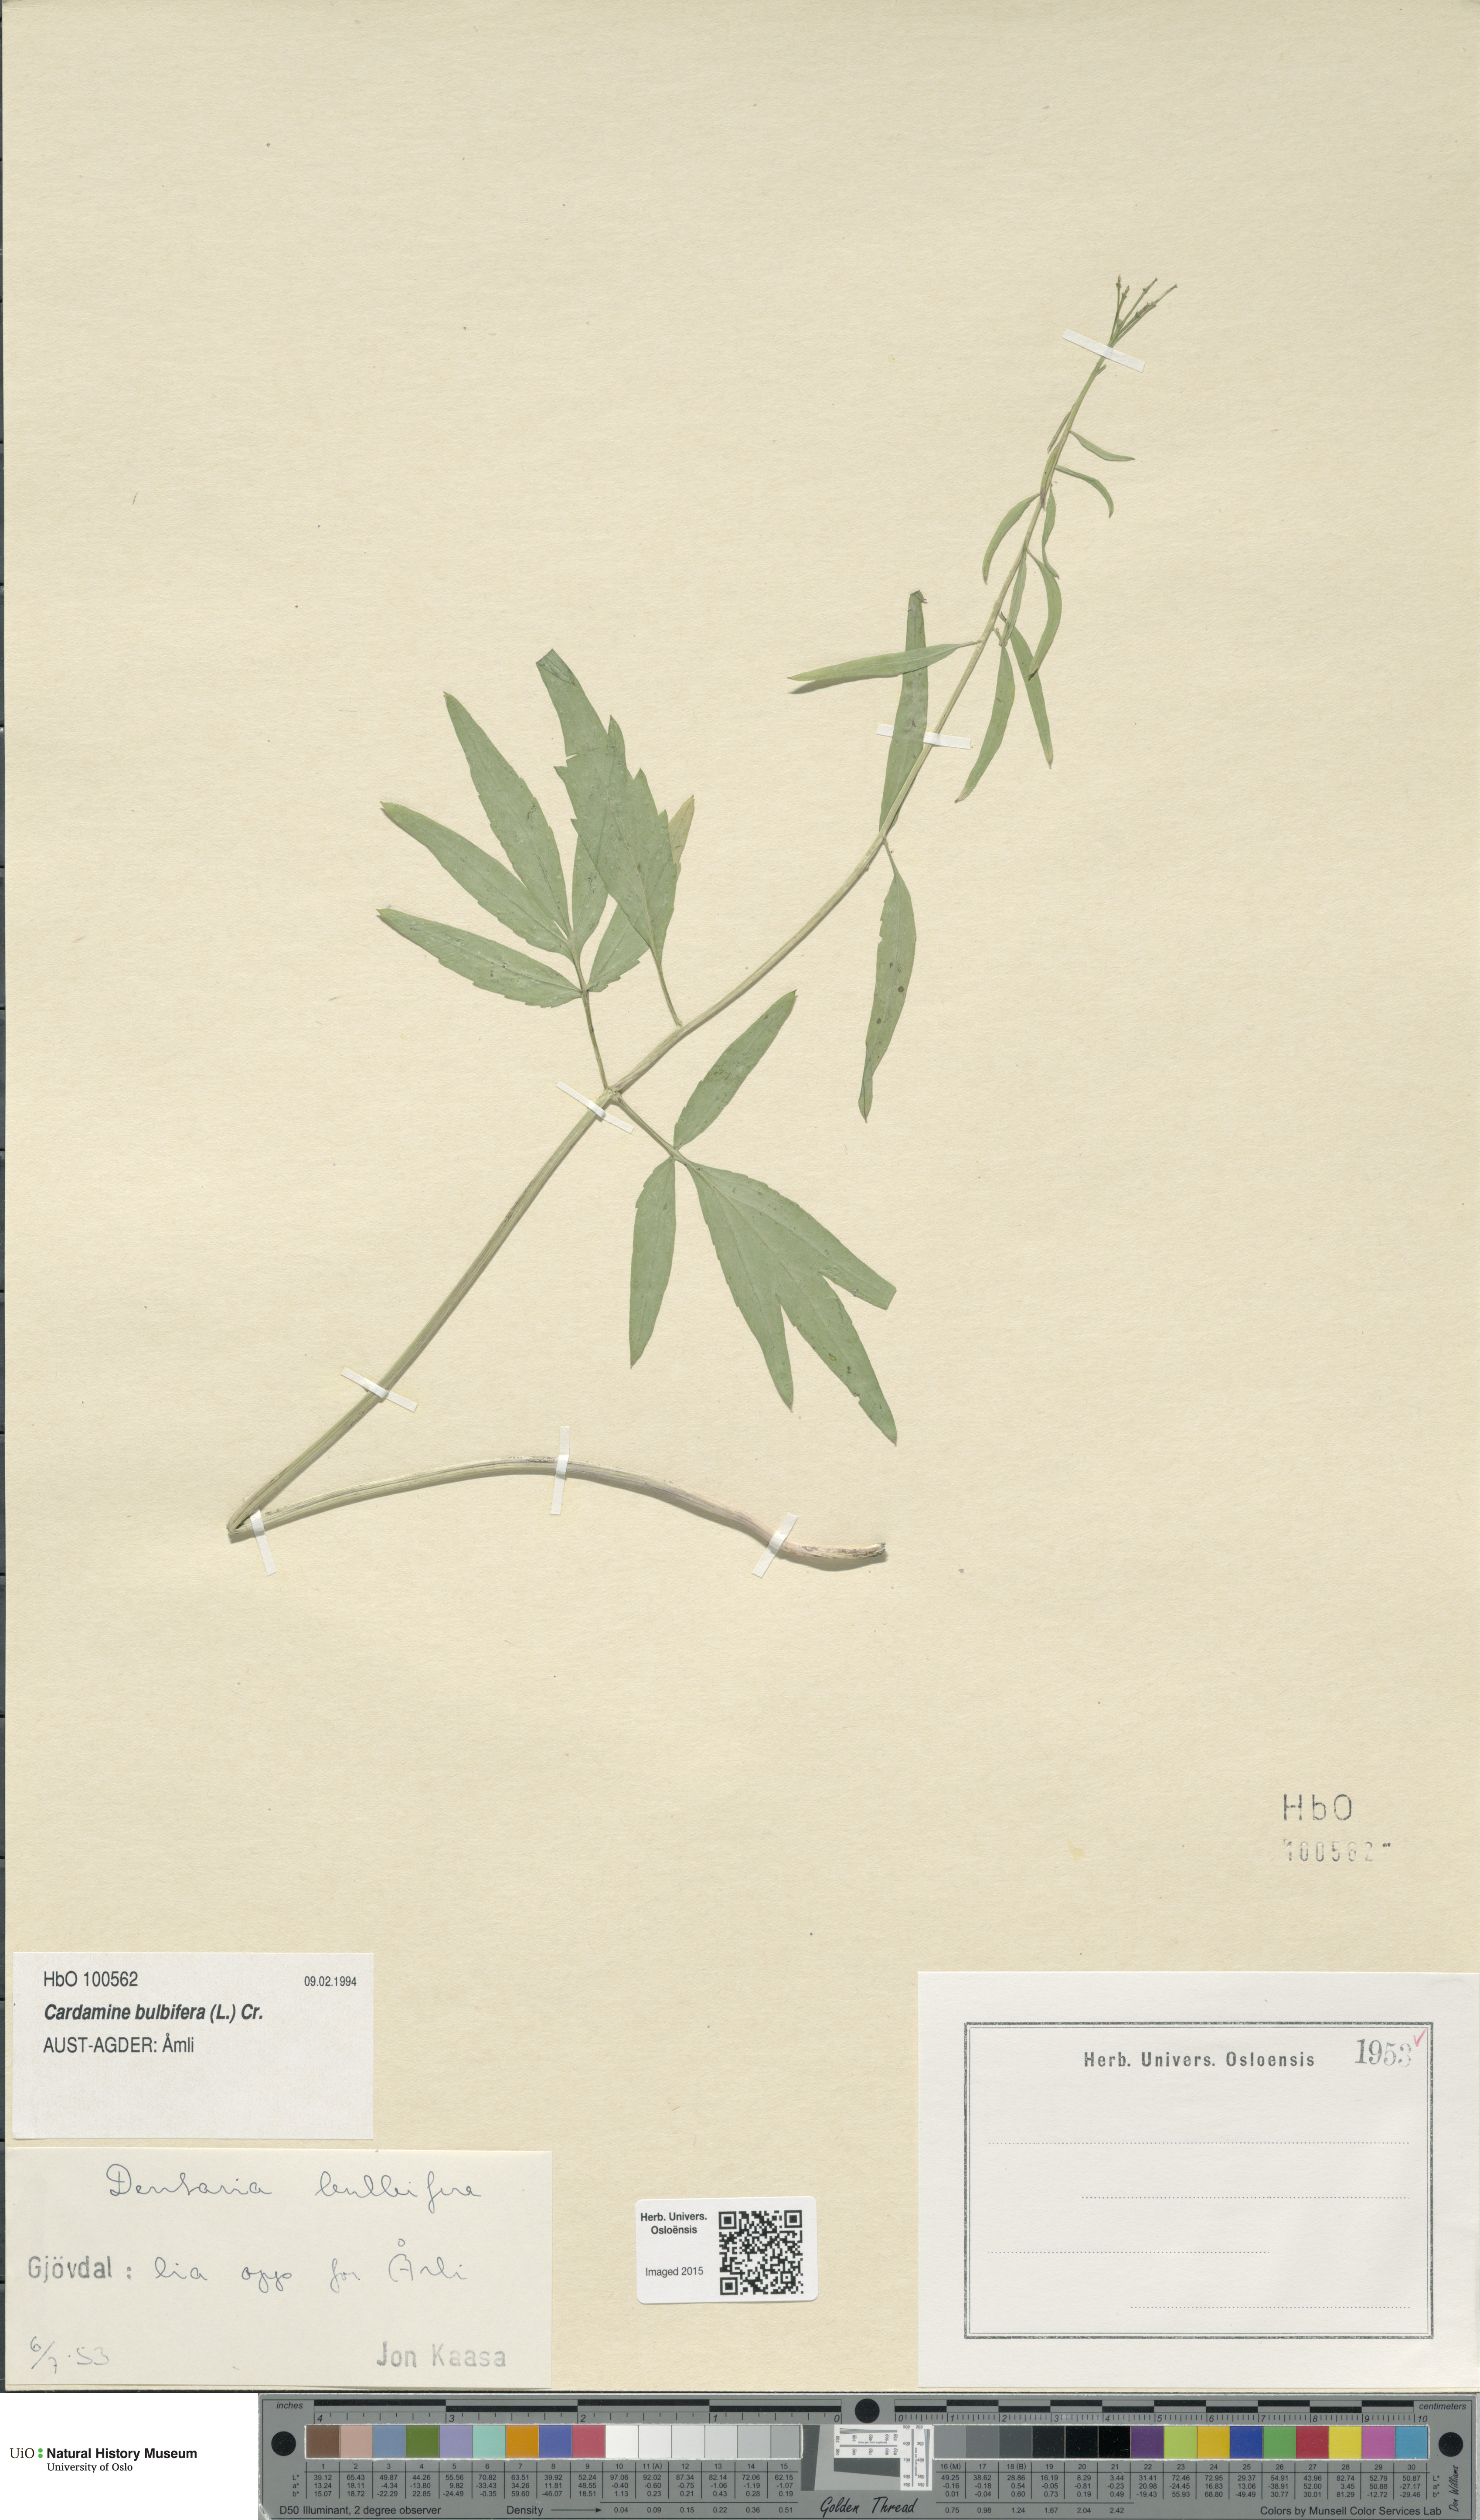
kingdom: Plantae
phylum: Tracheophyta
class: Magnoliopsida
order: Brassicales
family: Brassicaceae
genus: Cardamine
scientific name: Cardamine bulbifera
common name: Coralroot bittercress
